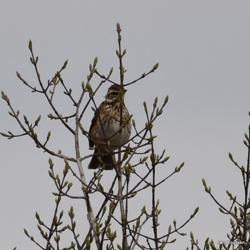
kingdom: Animalia
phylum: Chordata
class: Aves
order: Passeriformes
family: Turdidae
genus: Turdus
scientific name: Turdus iliacus
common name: Vindrossel
